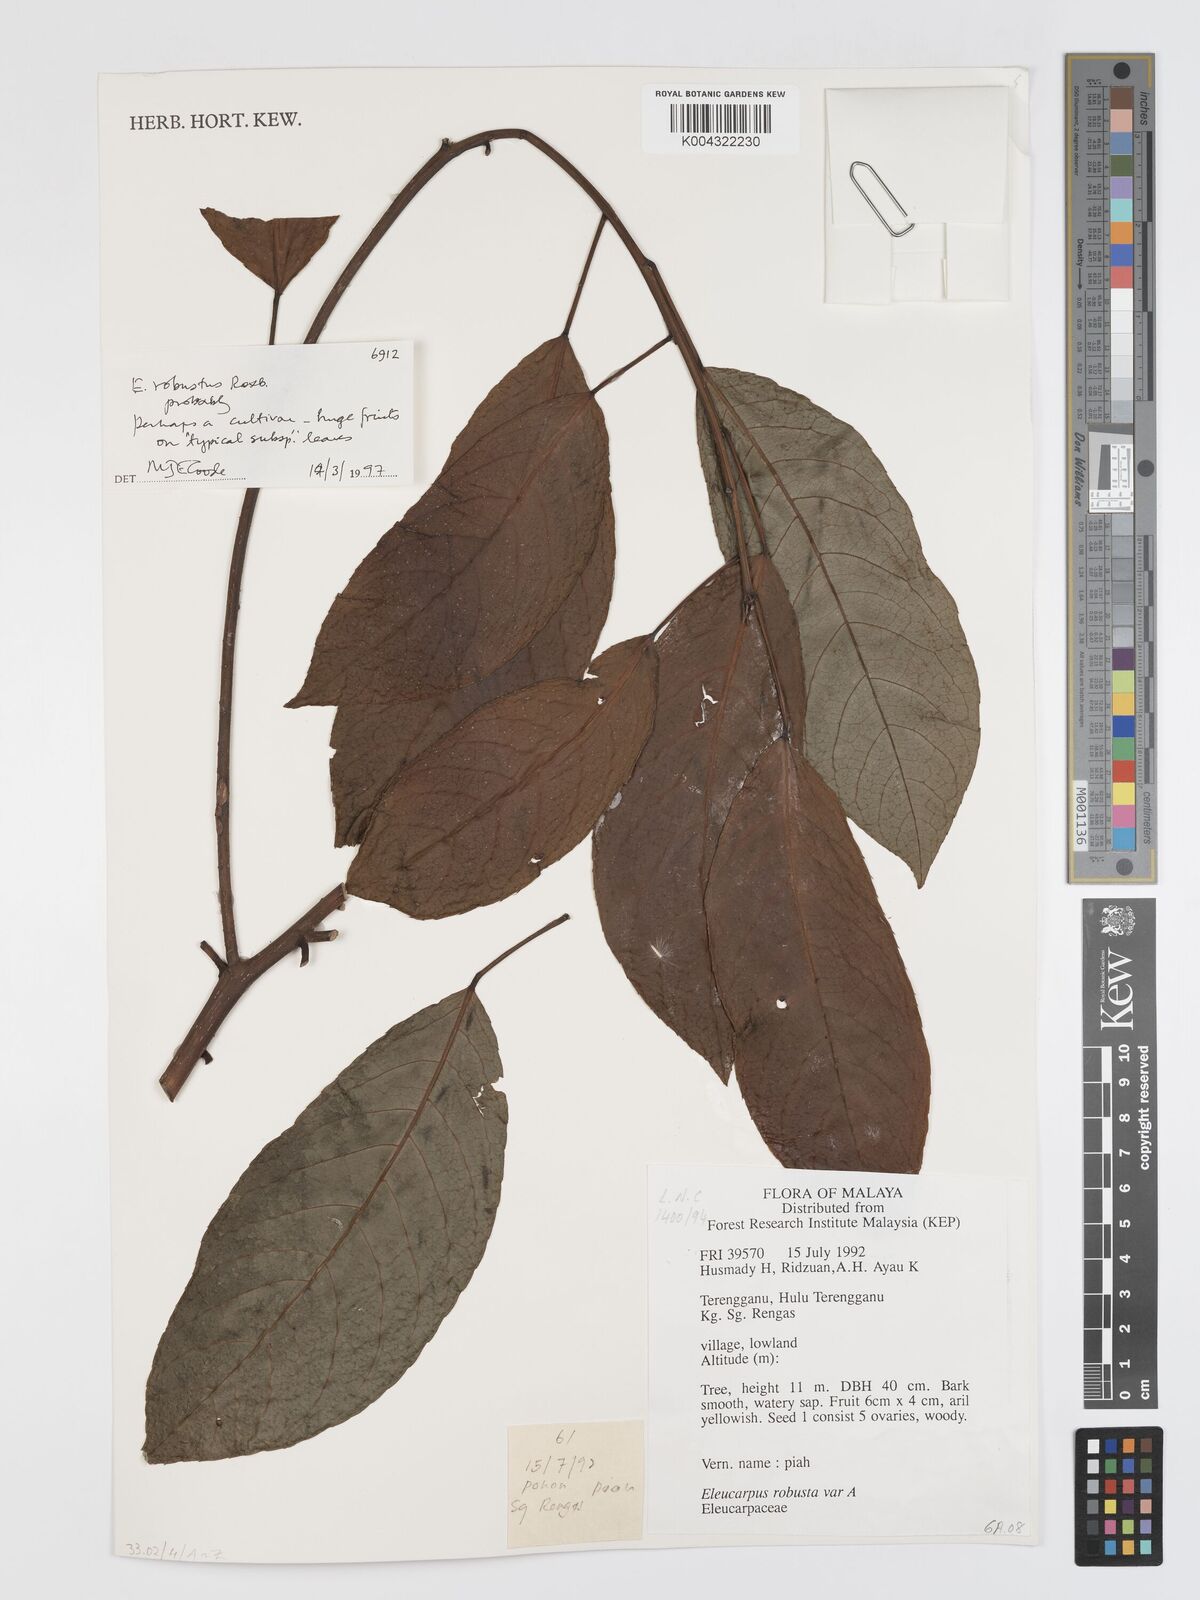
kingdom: Plantae
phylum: Tracheophyta
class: Magnoliopsida
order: Oxalidales
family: Elaeocarpaceae
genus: Elaeocarpus
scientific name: Elaeocarpus robustus
